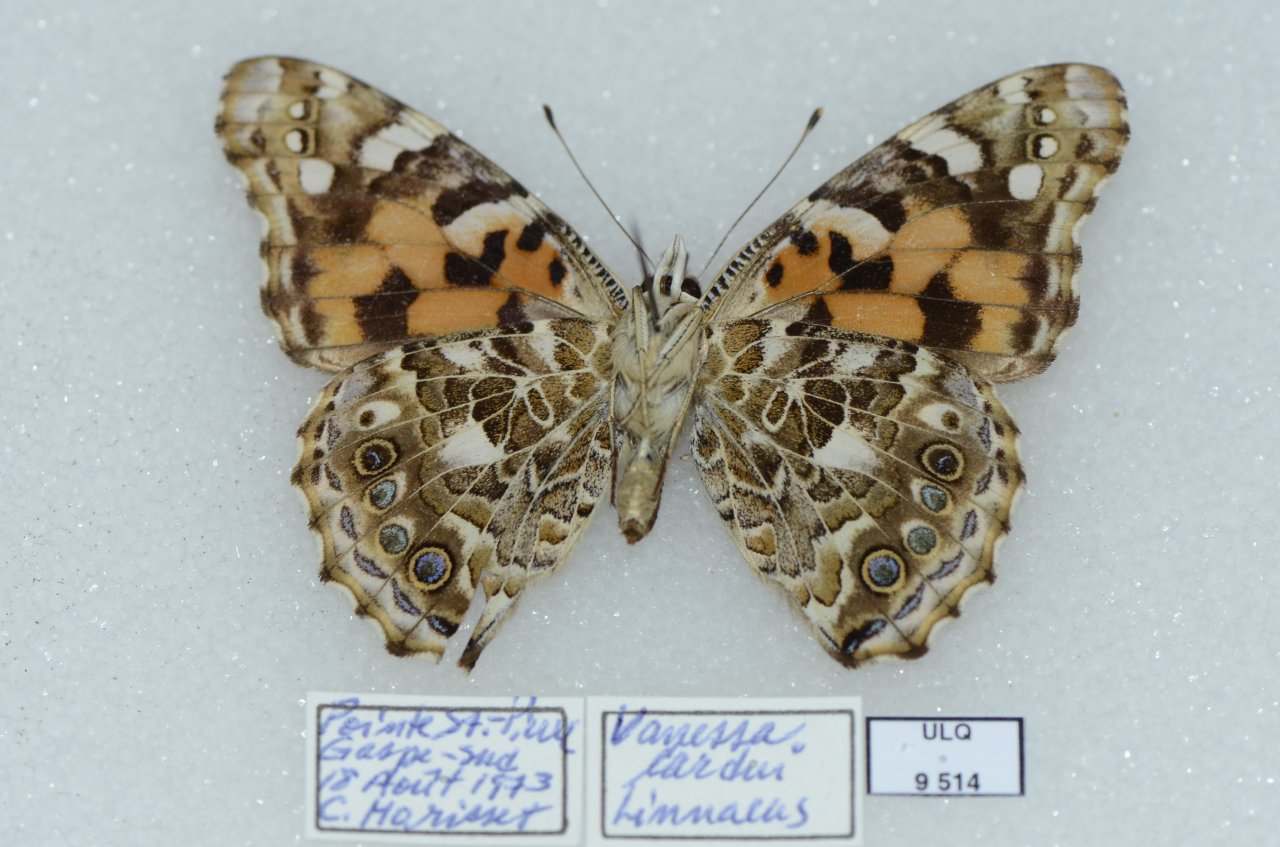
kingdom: Animalia
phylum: Arthropoda
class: Insecta
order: Lepidoptera
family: Nymphalidae
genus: Vanessa
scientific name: Vanessa cardui
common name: Painted Lady
